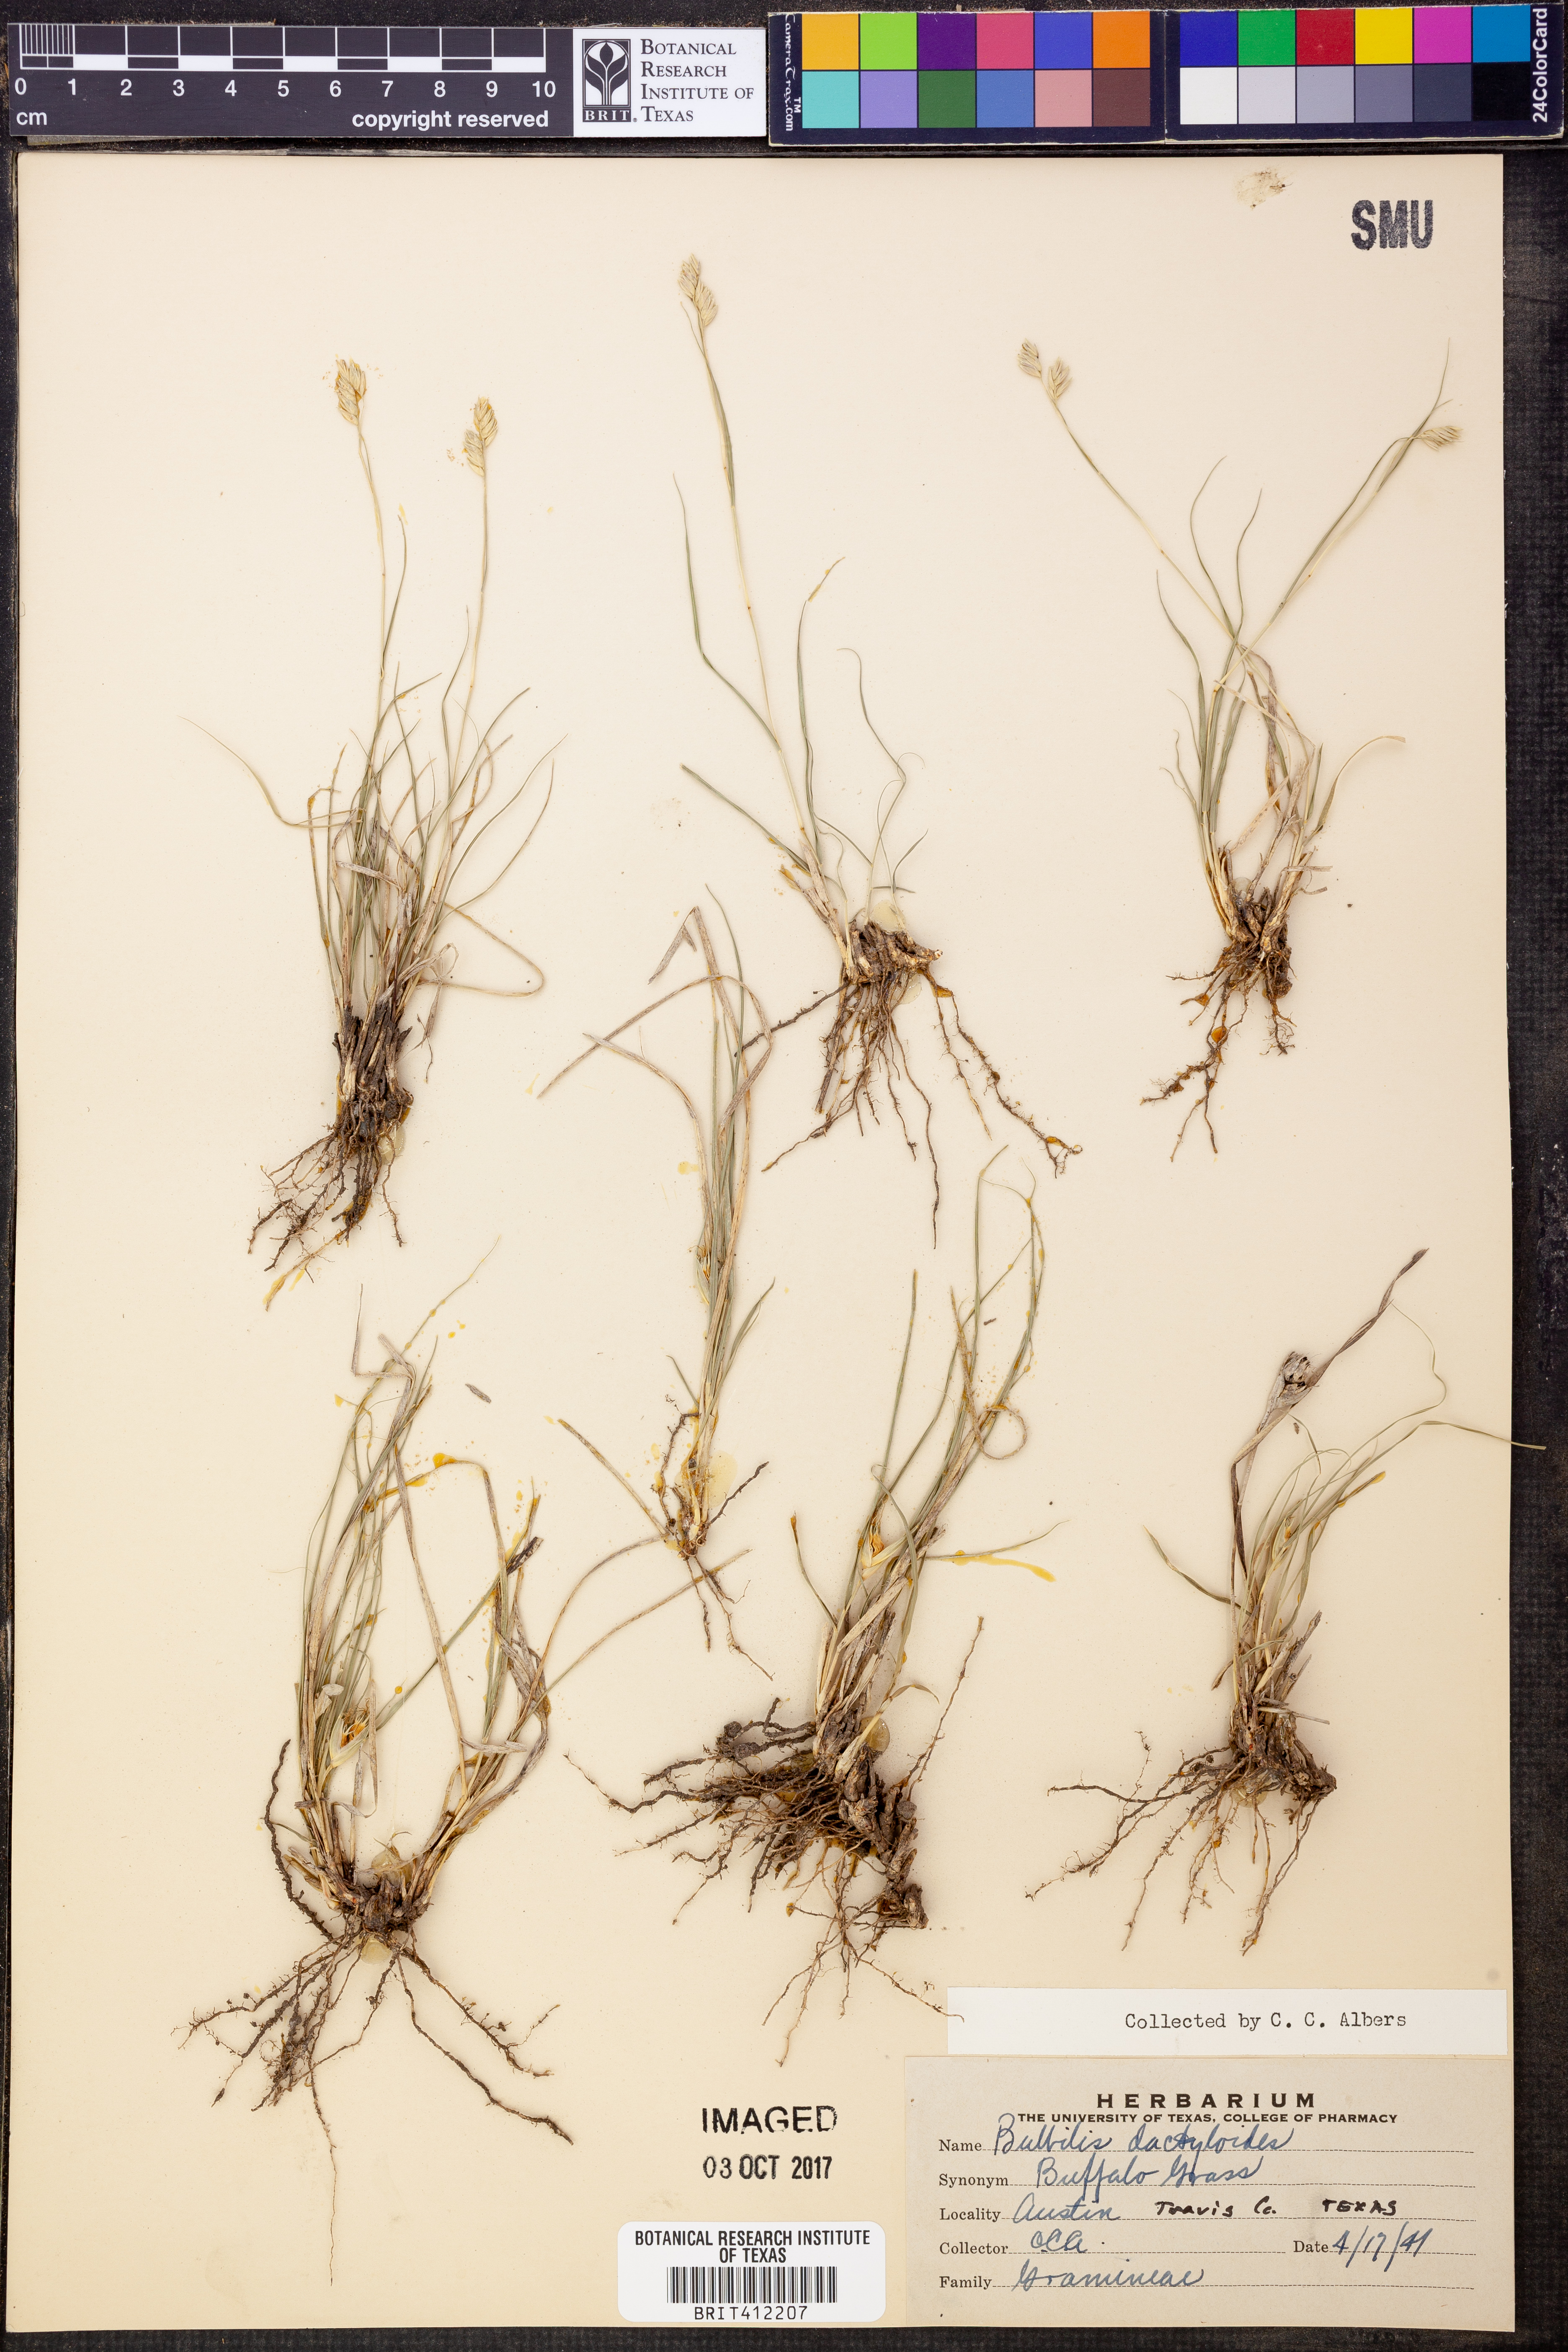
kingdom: Plantae
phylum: Tracheophyta
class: Liliopsida
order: Poales
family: Poaceae
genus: Bouteloua
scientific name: Bouteloua dactyloides
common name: Buffalo grass
